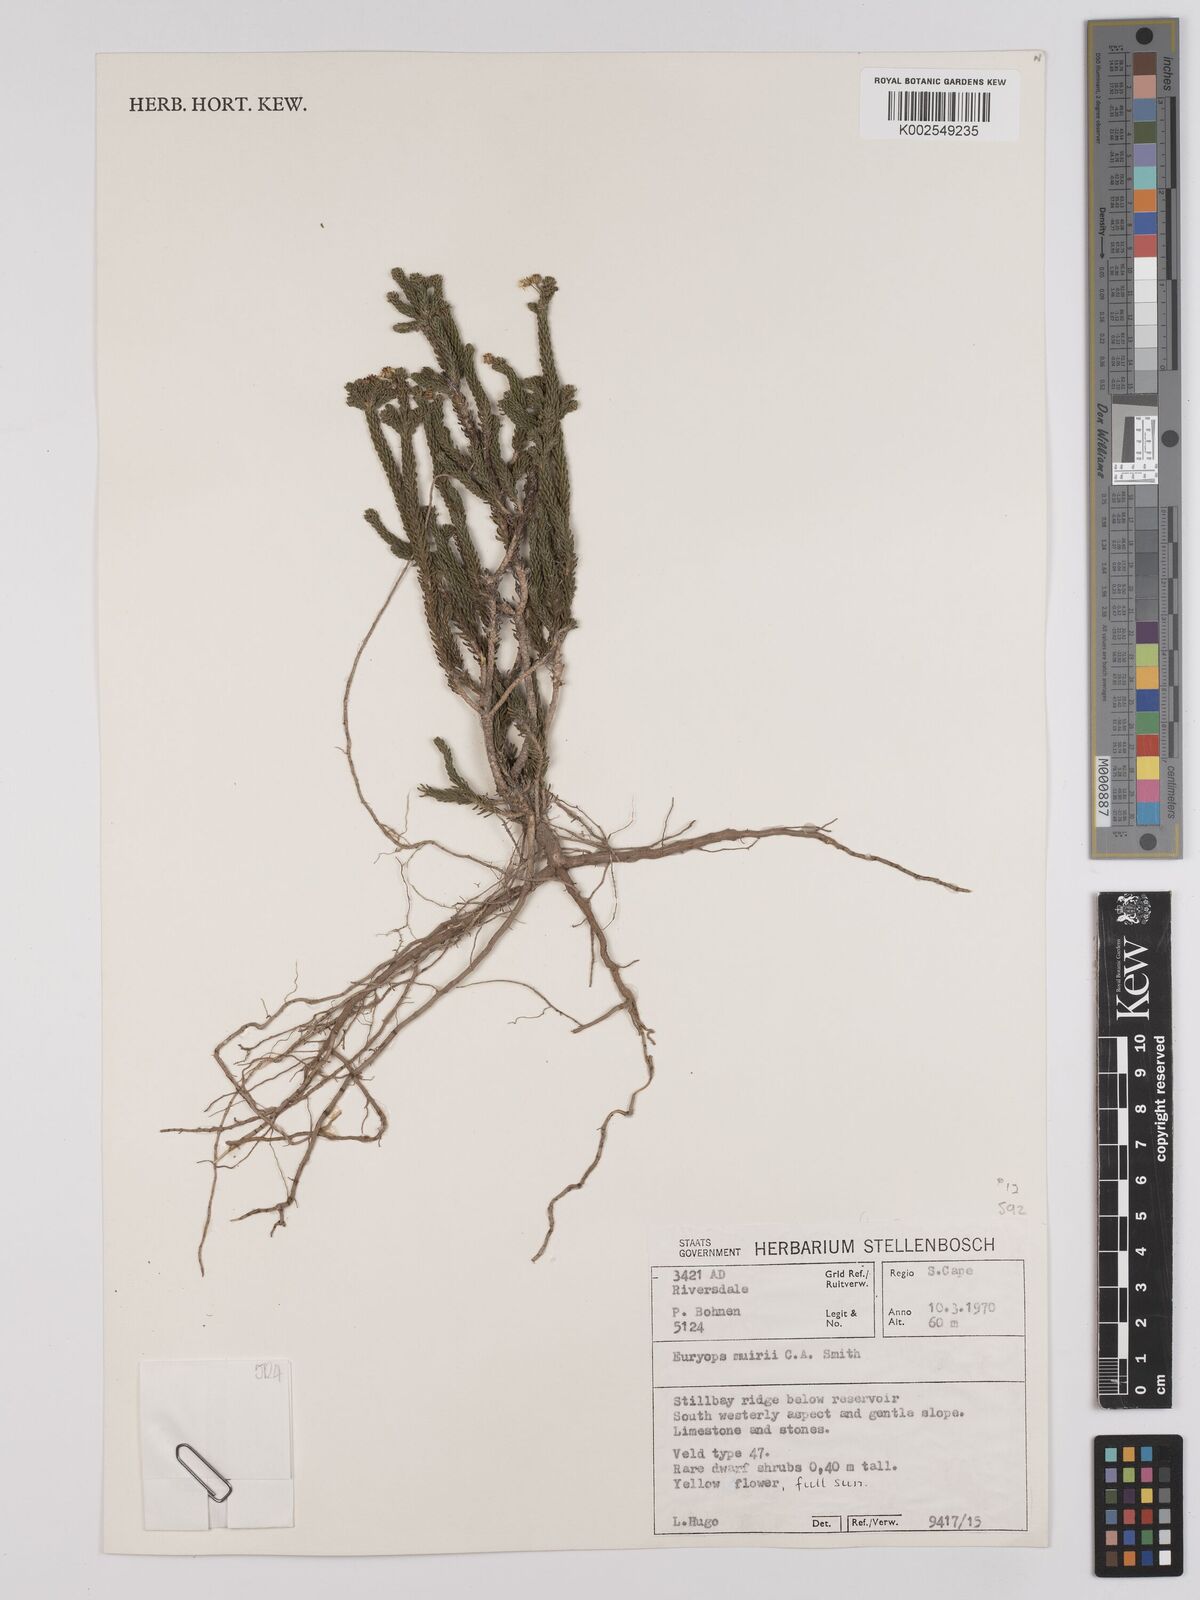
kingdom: Plantae
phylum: Tracheophyta
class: Magnoliopsida
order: Asterales
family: Asteraceae
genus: Euryops
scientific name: Euryops muirii
